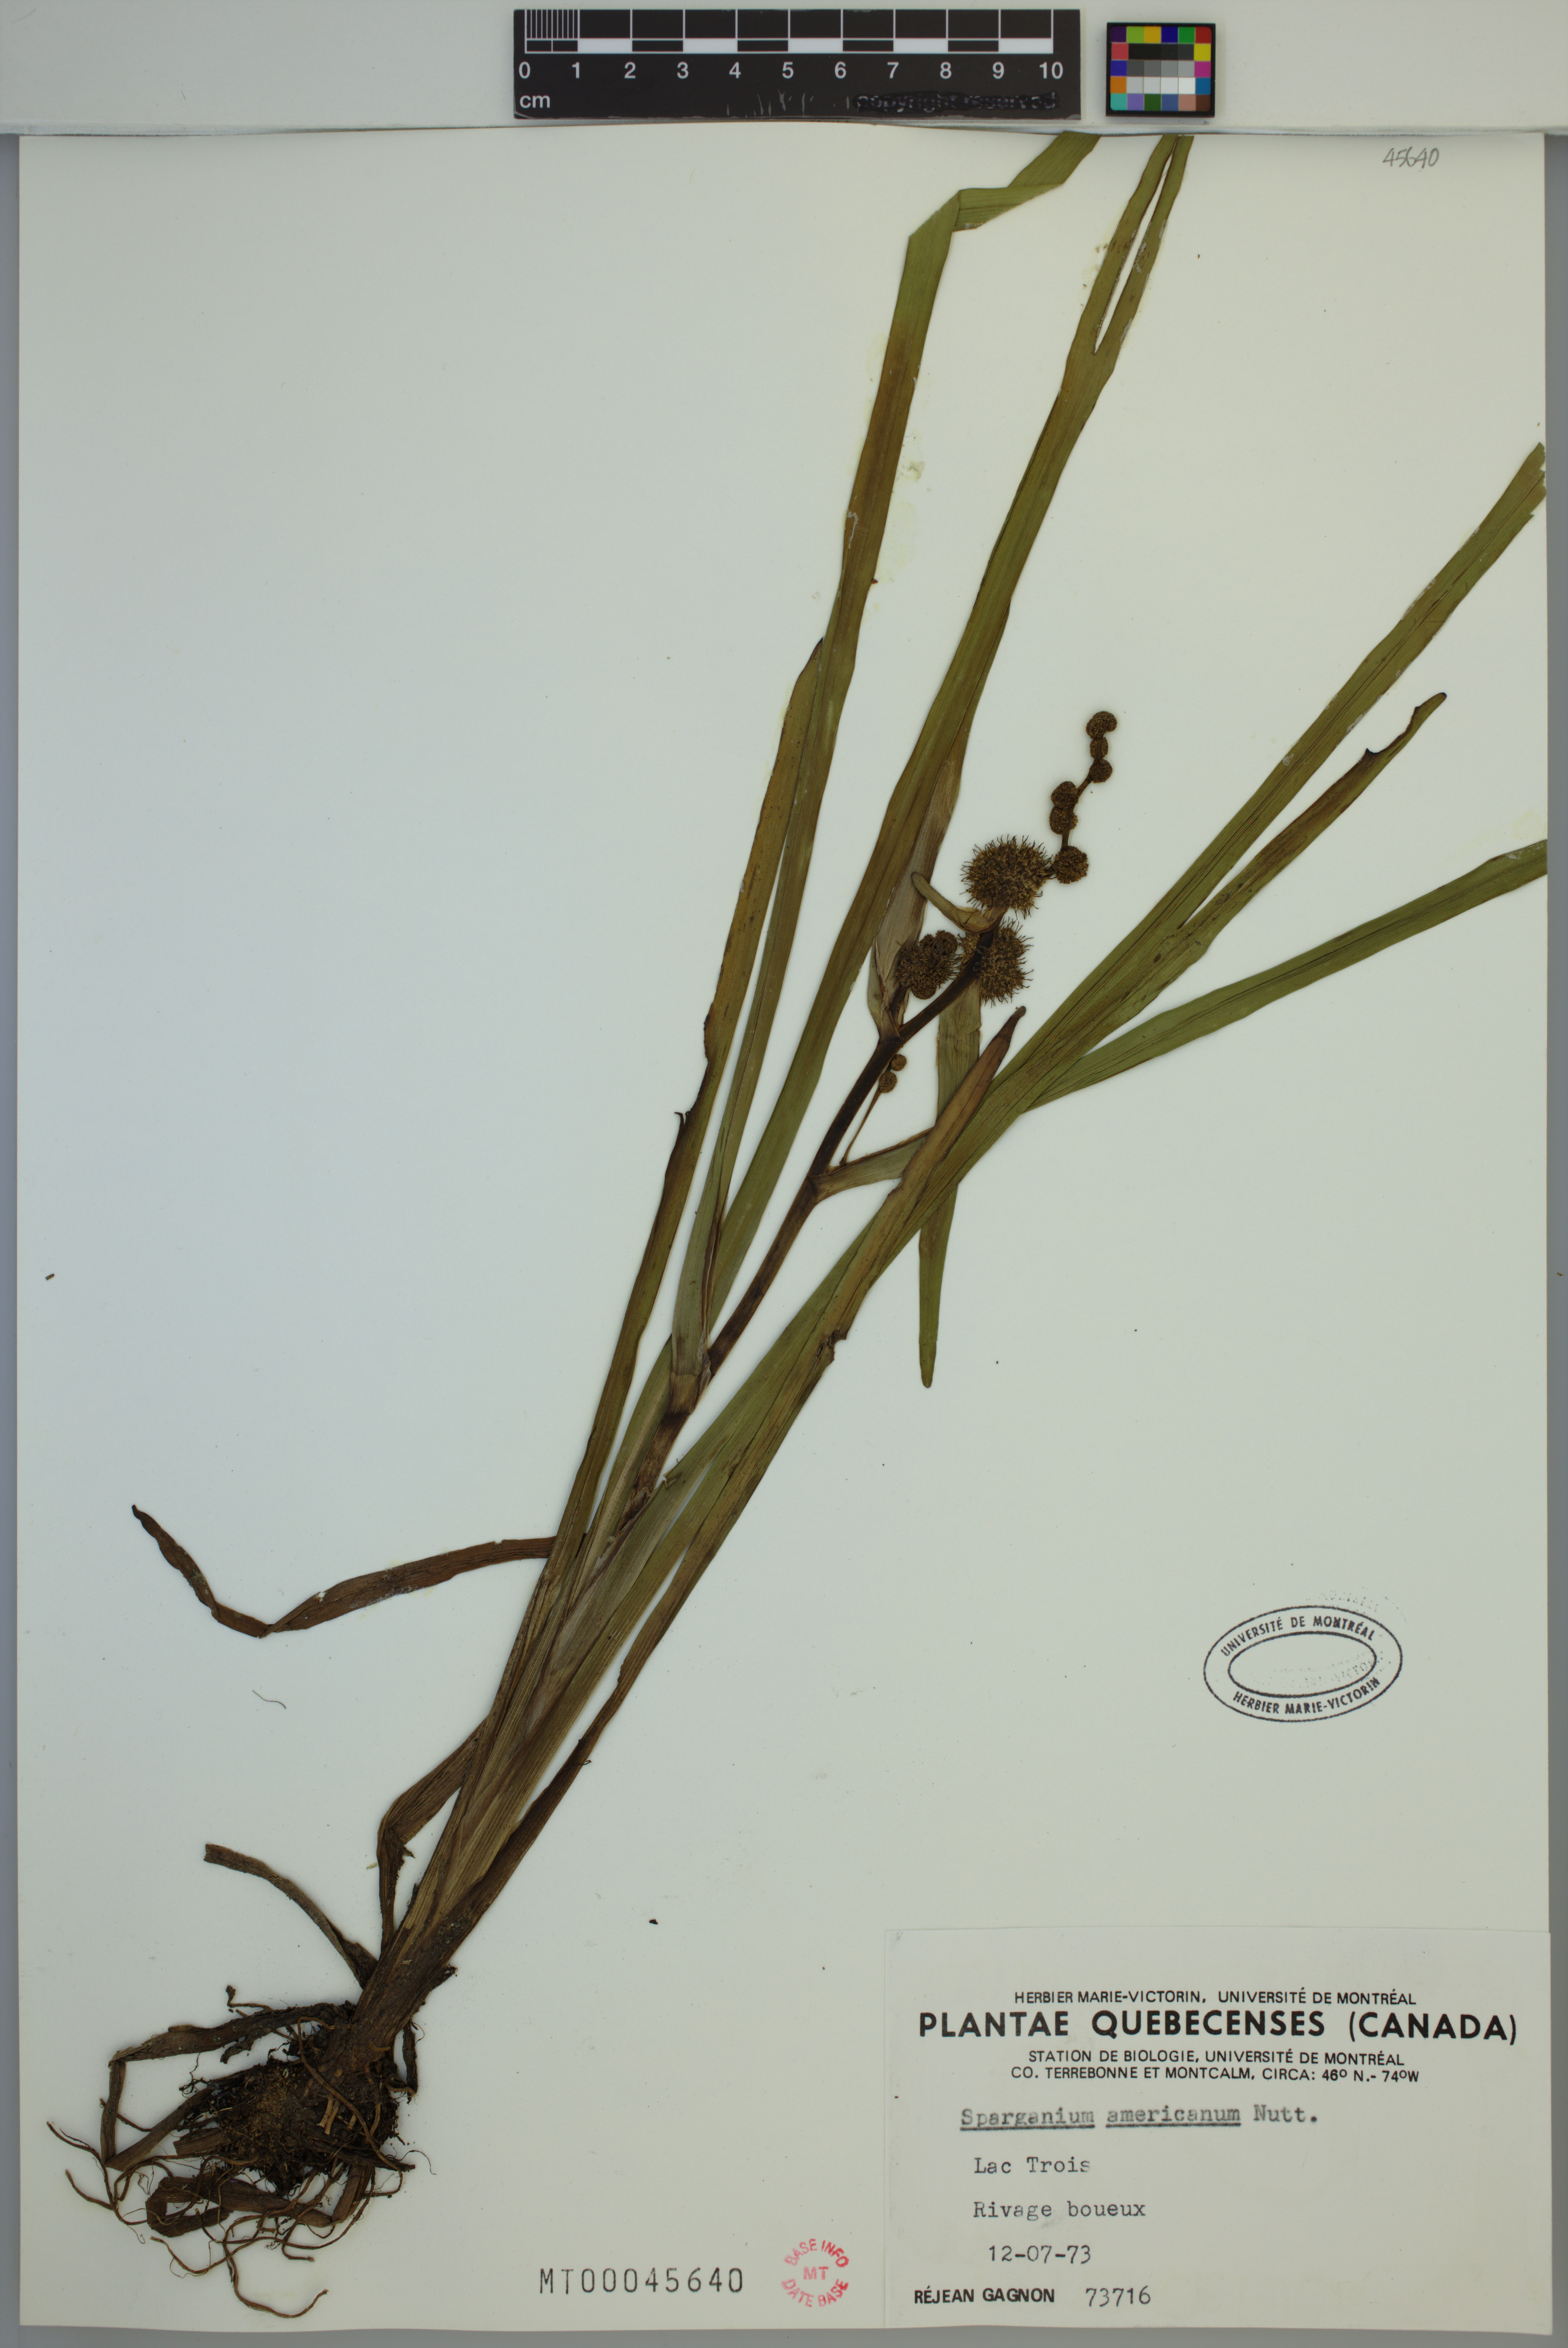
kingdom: Plantae
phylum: Tracheophyta
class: Liliopsida
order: Poales
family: Typhaceae
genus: Sparganium
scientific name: Sparganium americanum
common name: American burreed
